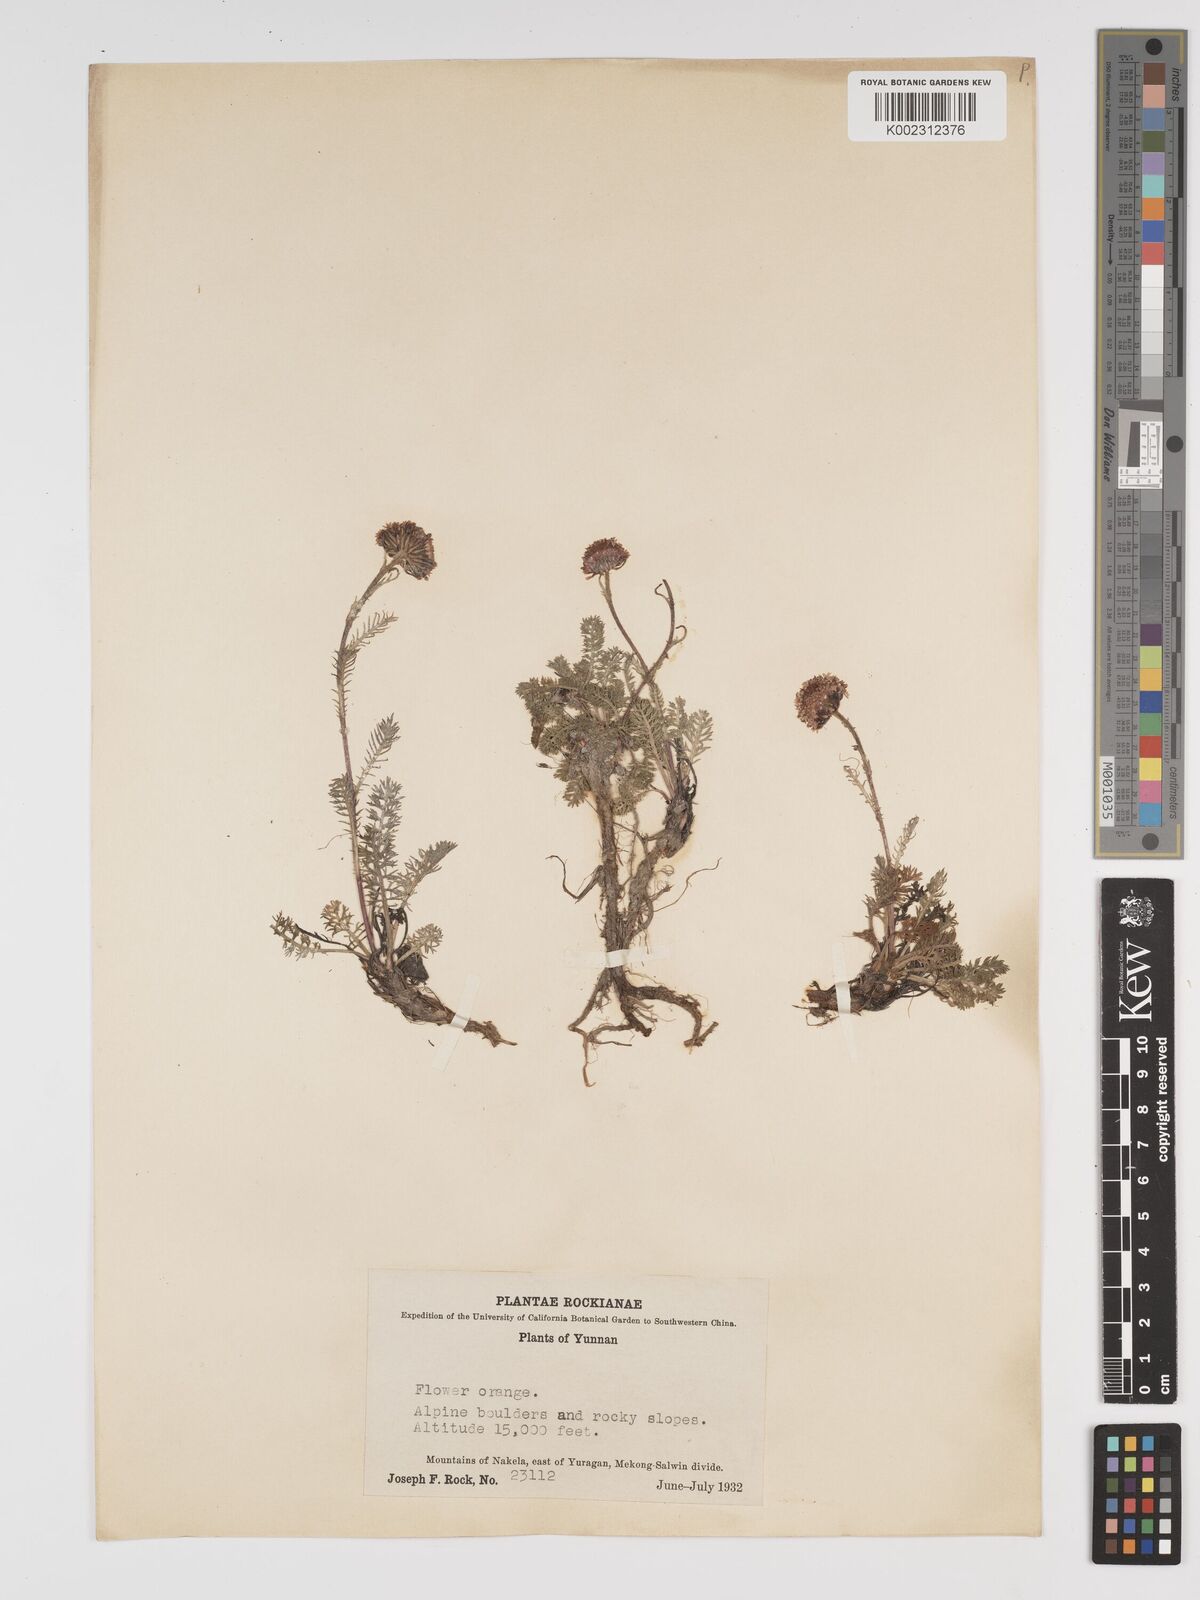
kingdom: Plantae
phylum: Tracheophyta
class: Magnoliopsida
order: Asterales
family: Asteraceae
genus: Tanacetum
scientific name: Tanacetum tatsienense
